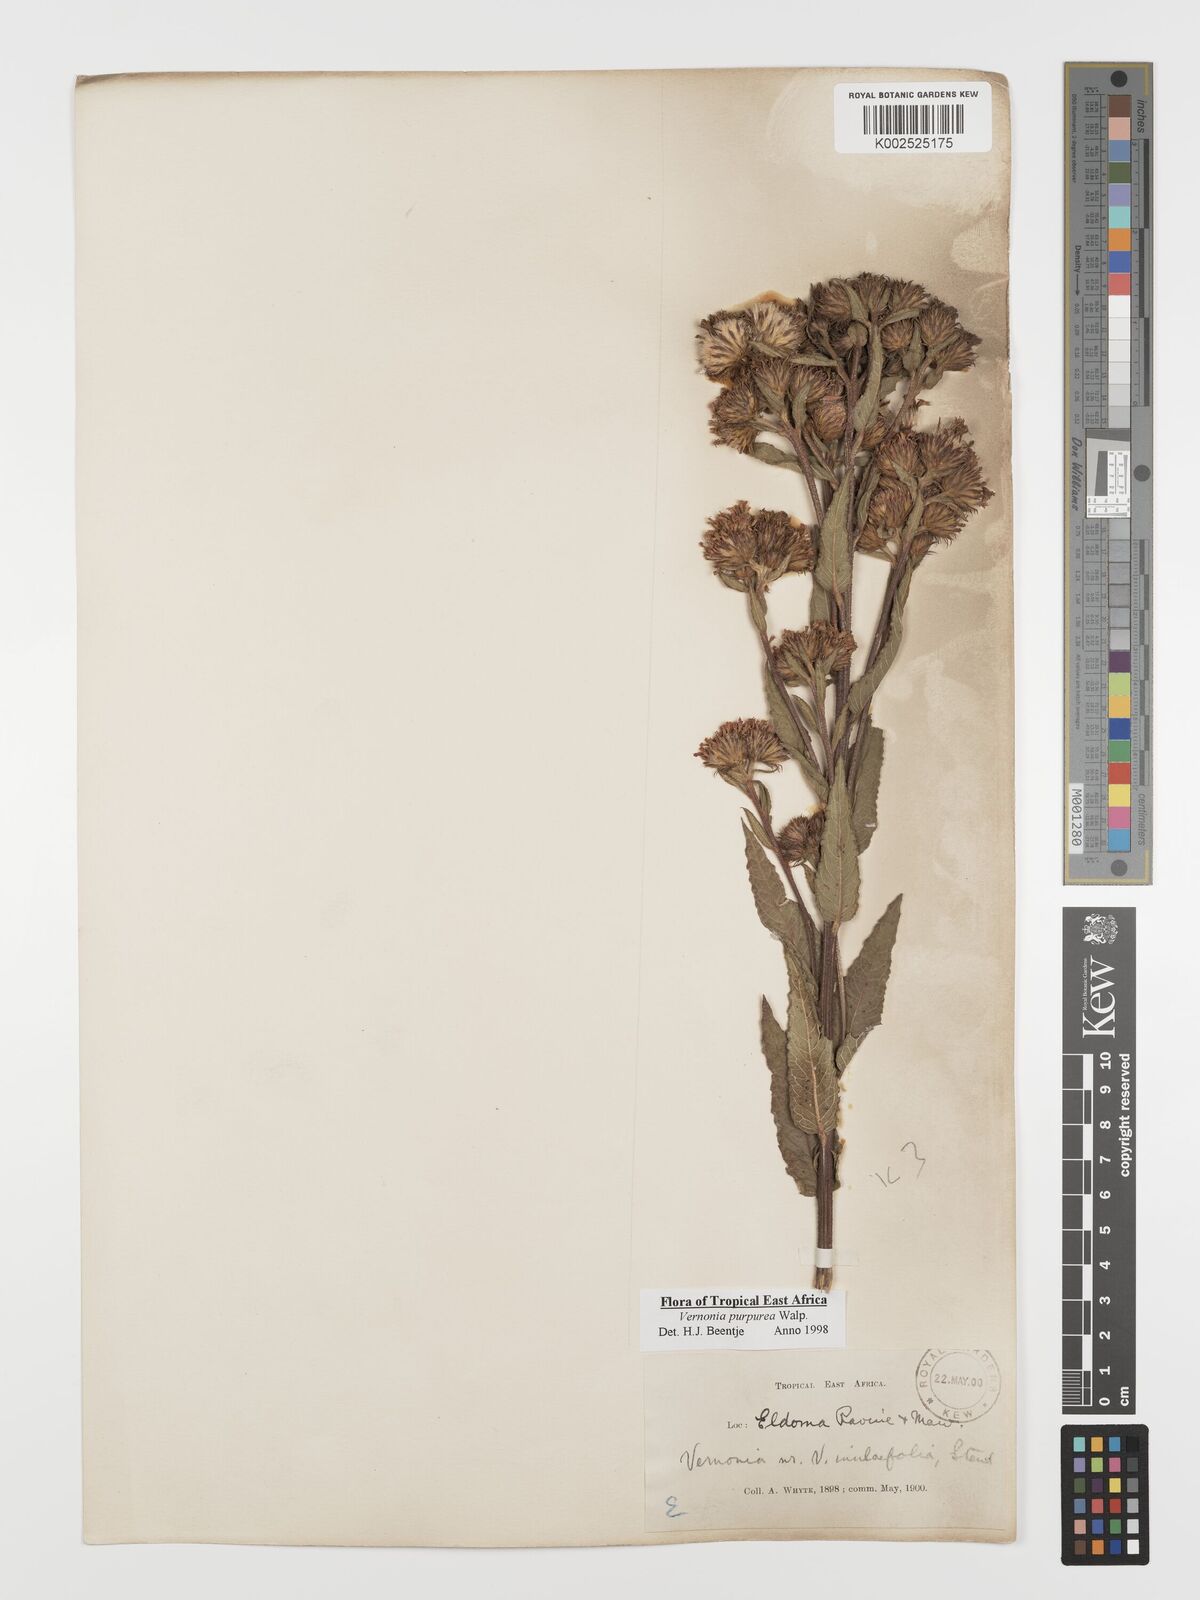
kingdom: Plantae
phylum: Tracheophyta
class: Magnoliopsida
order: Asterales
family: Asteraceae
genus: Nothovernonia
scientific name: Nothovernonia purpurea
